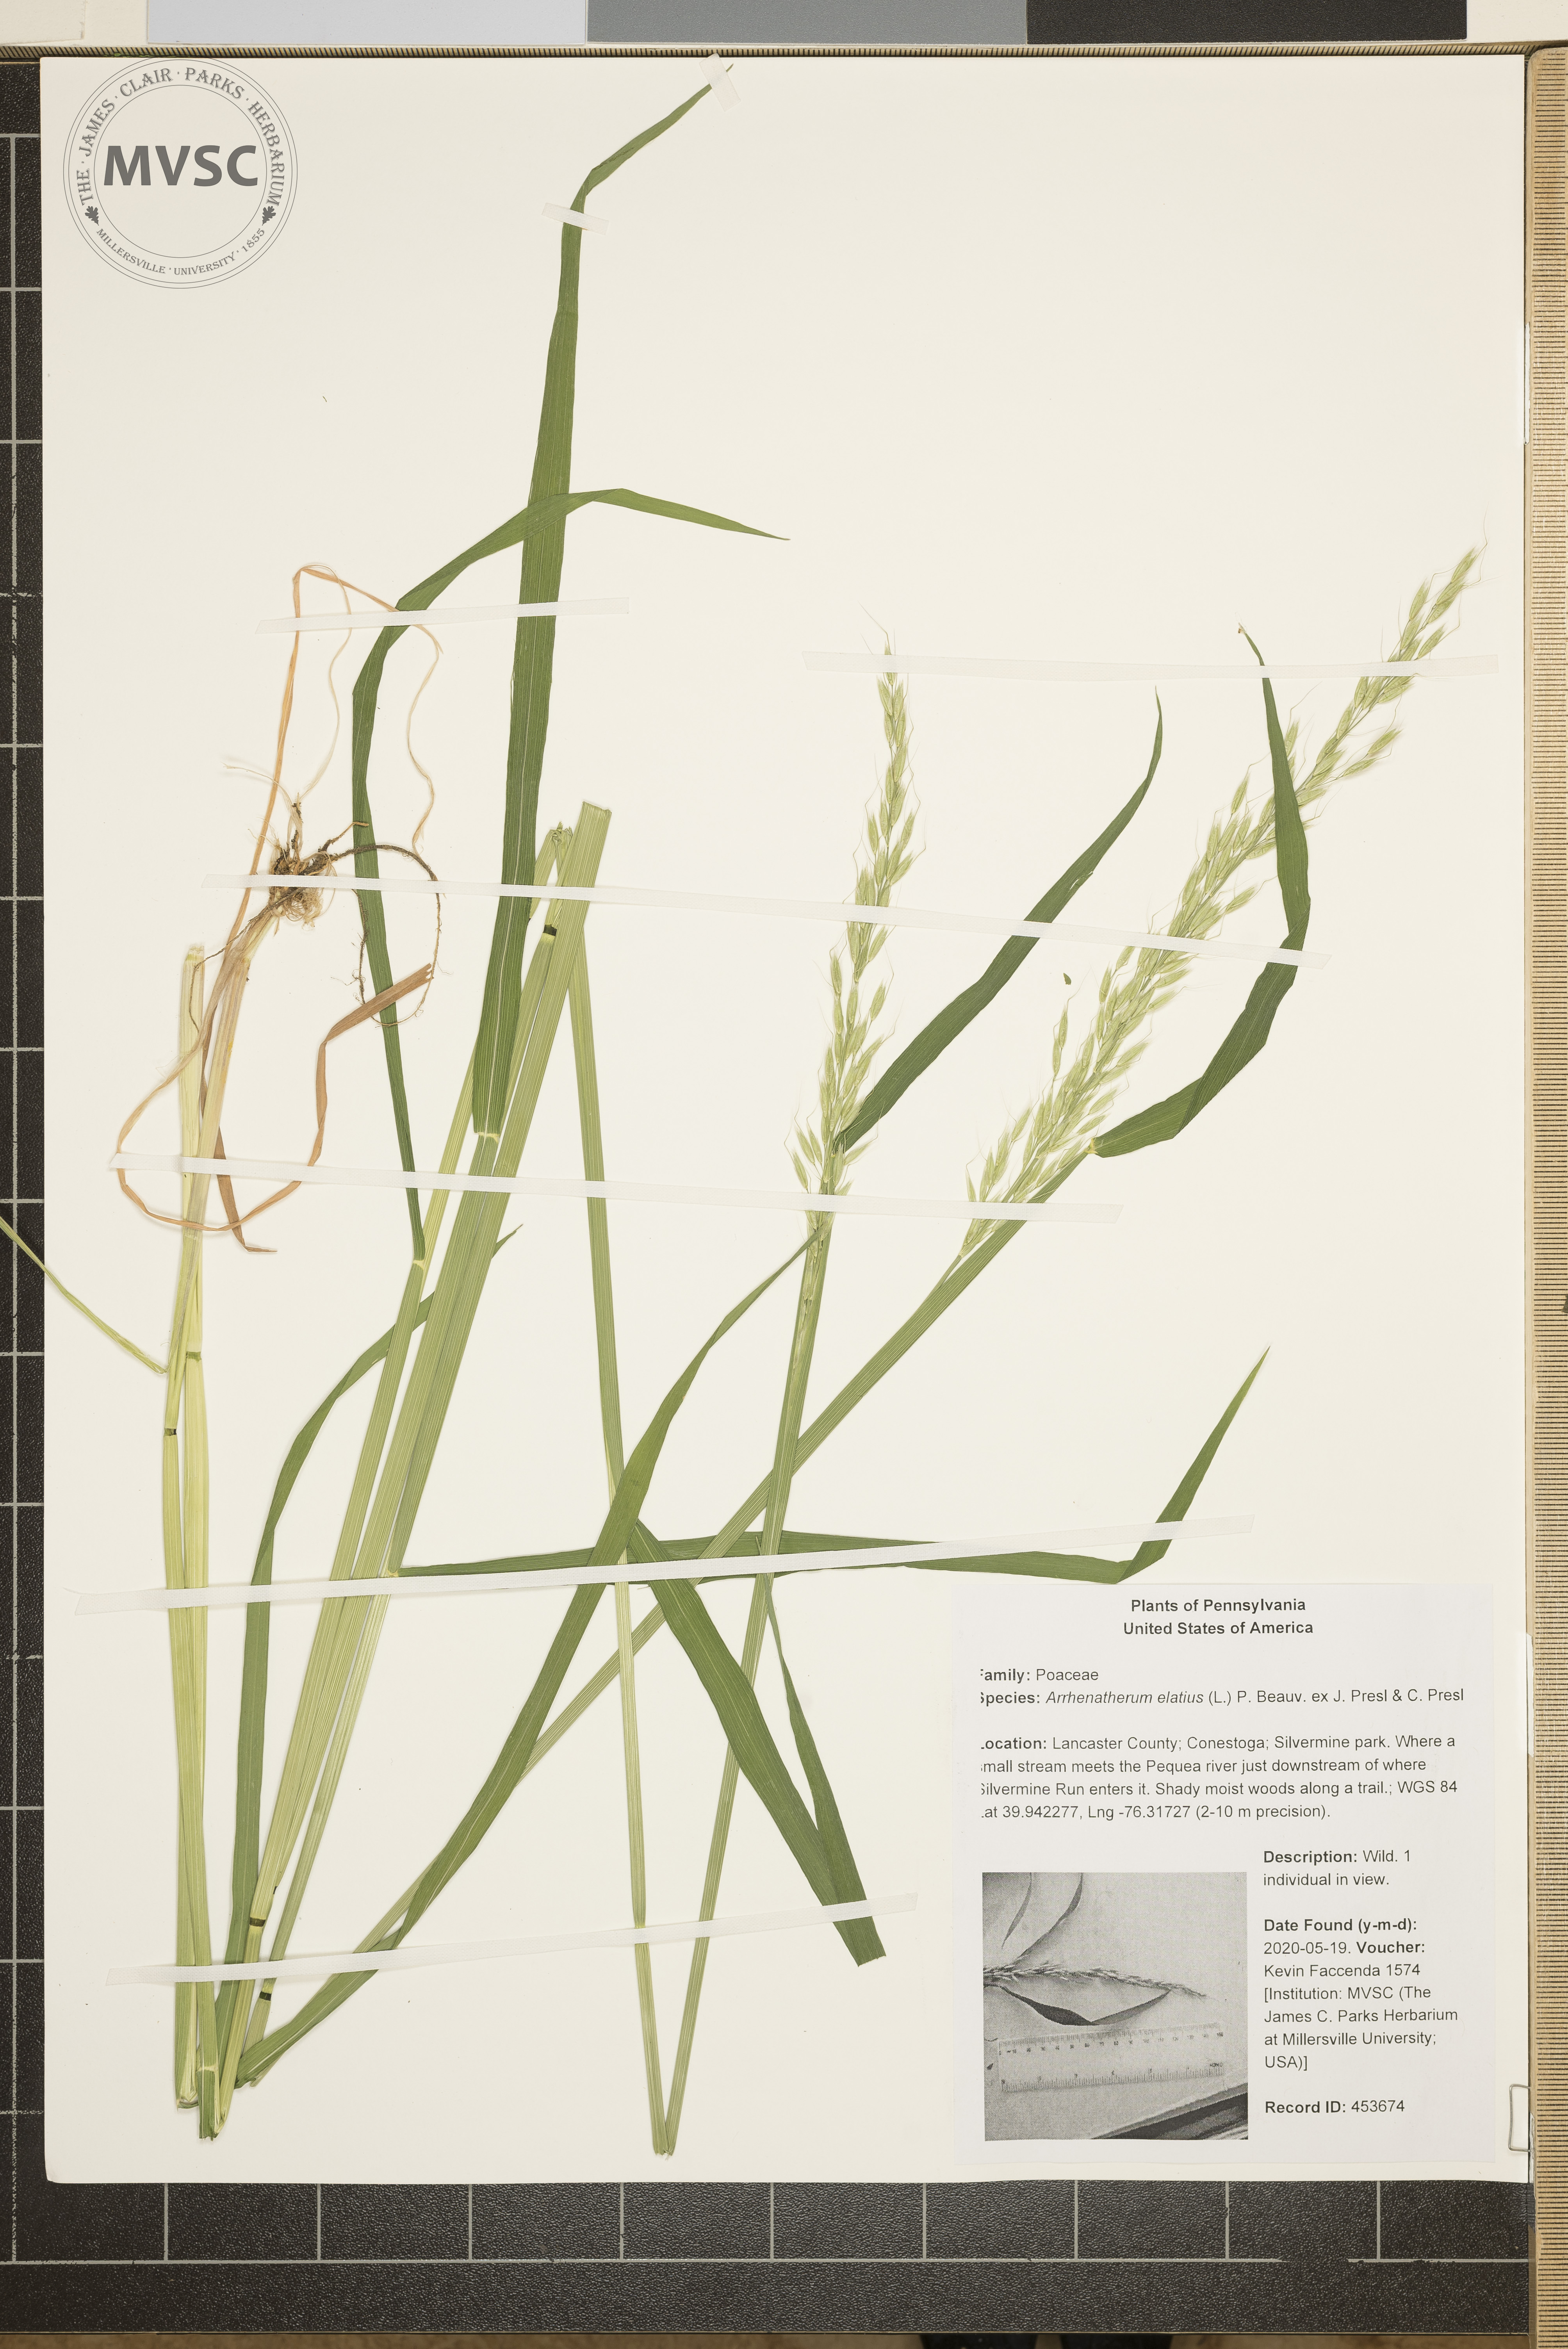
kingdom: Plantae
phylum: Tracheophyta
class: Liliopsida
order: Poales
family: Poaceae
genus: Arrhenatherum
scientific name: Arrhenatherum elatius
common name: Tall oatgrass
